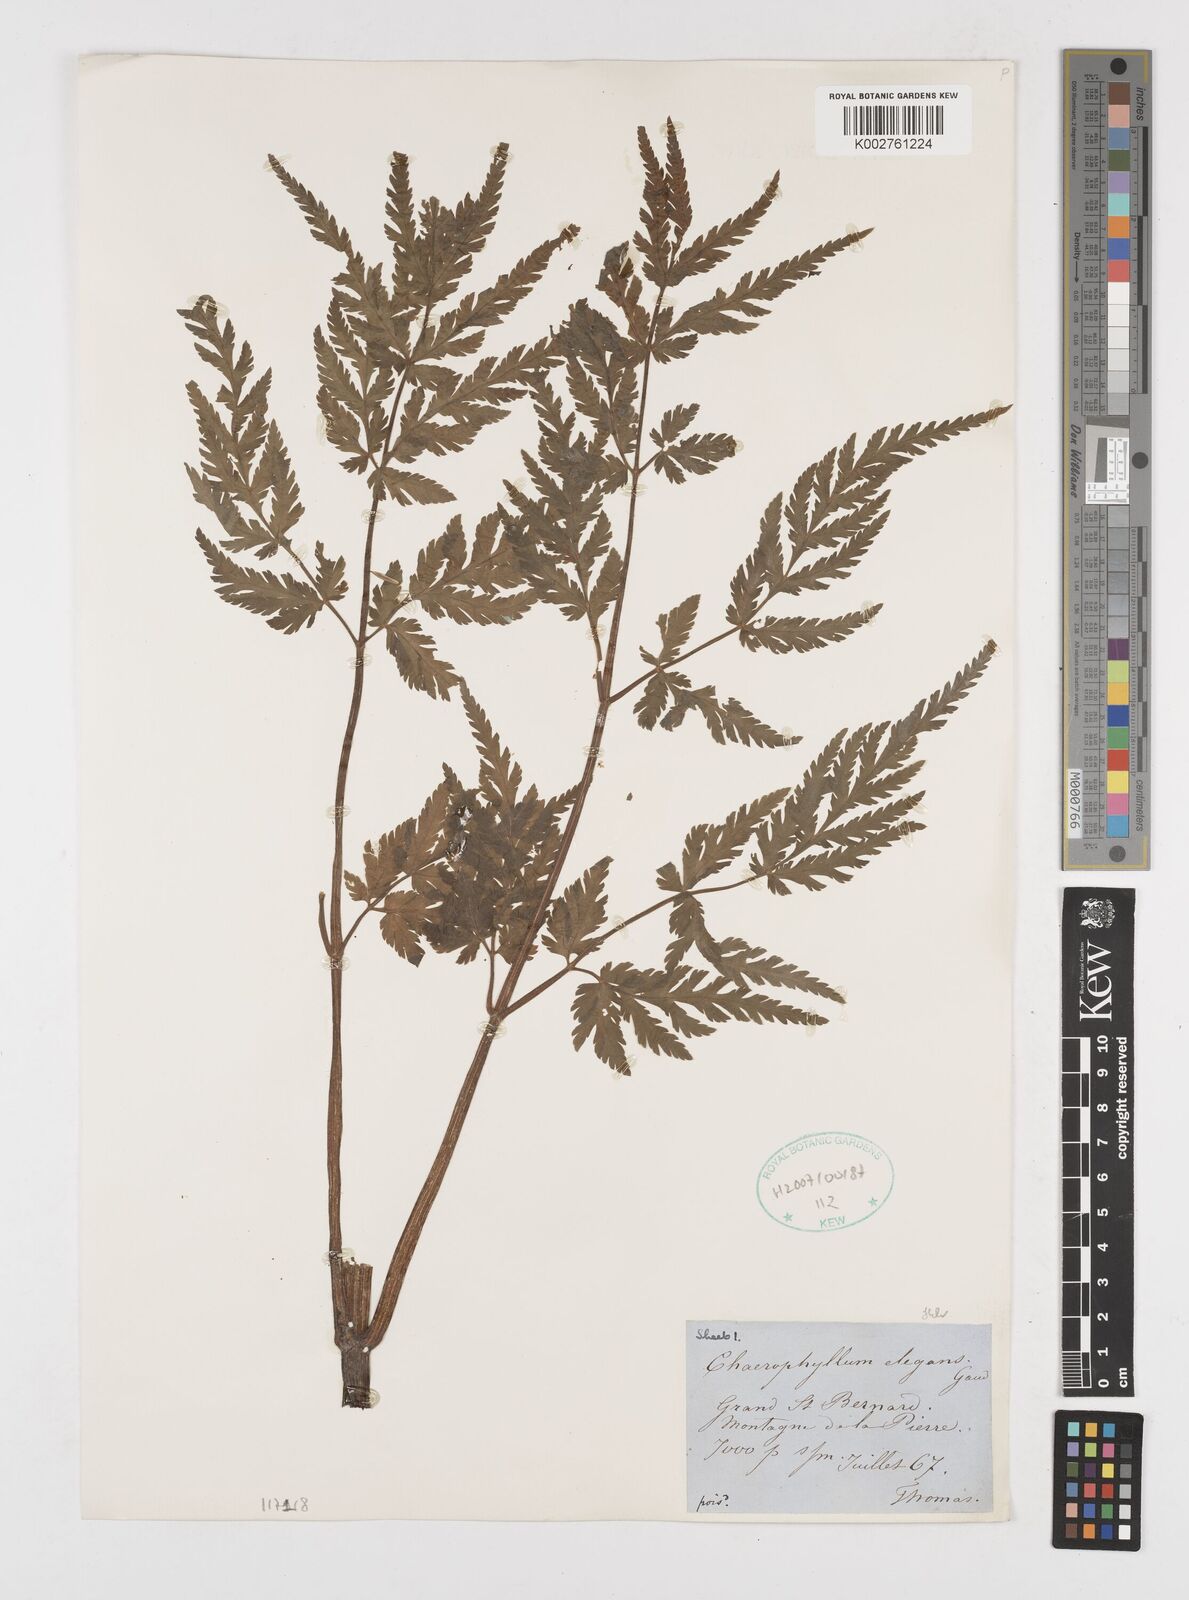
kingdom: Plantae
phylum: Tracheophyta
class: Magnoliopsida
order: Apiales
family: Apiaceae
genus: Chaerophyllum
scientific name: Chaerophyllum elegans
